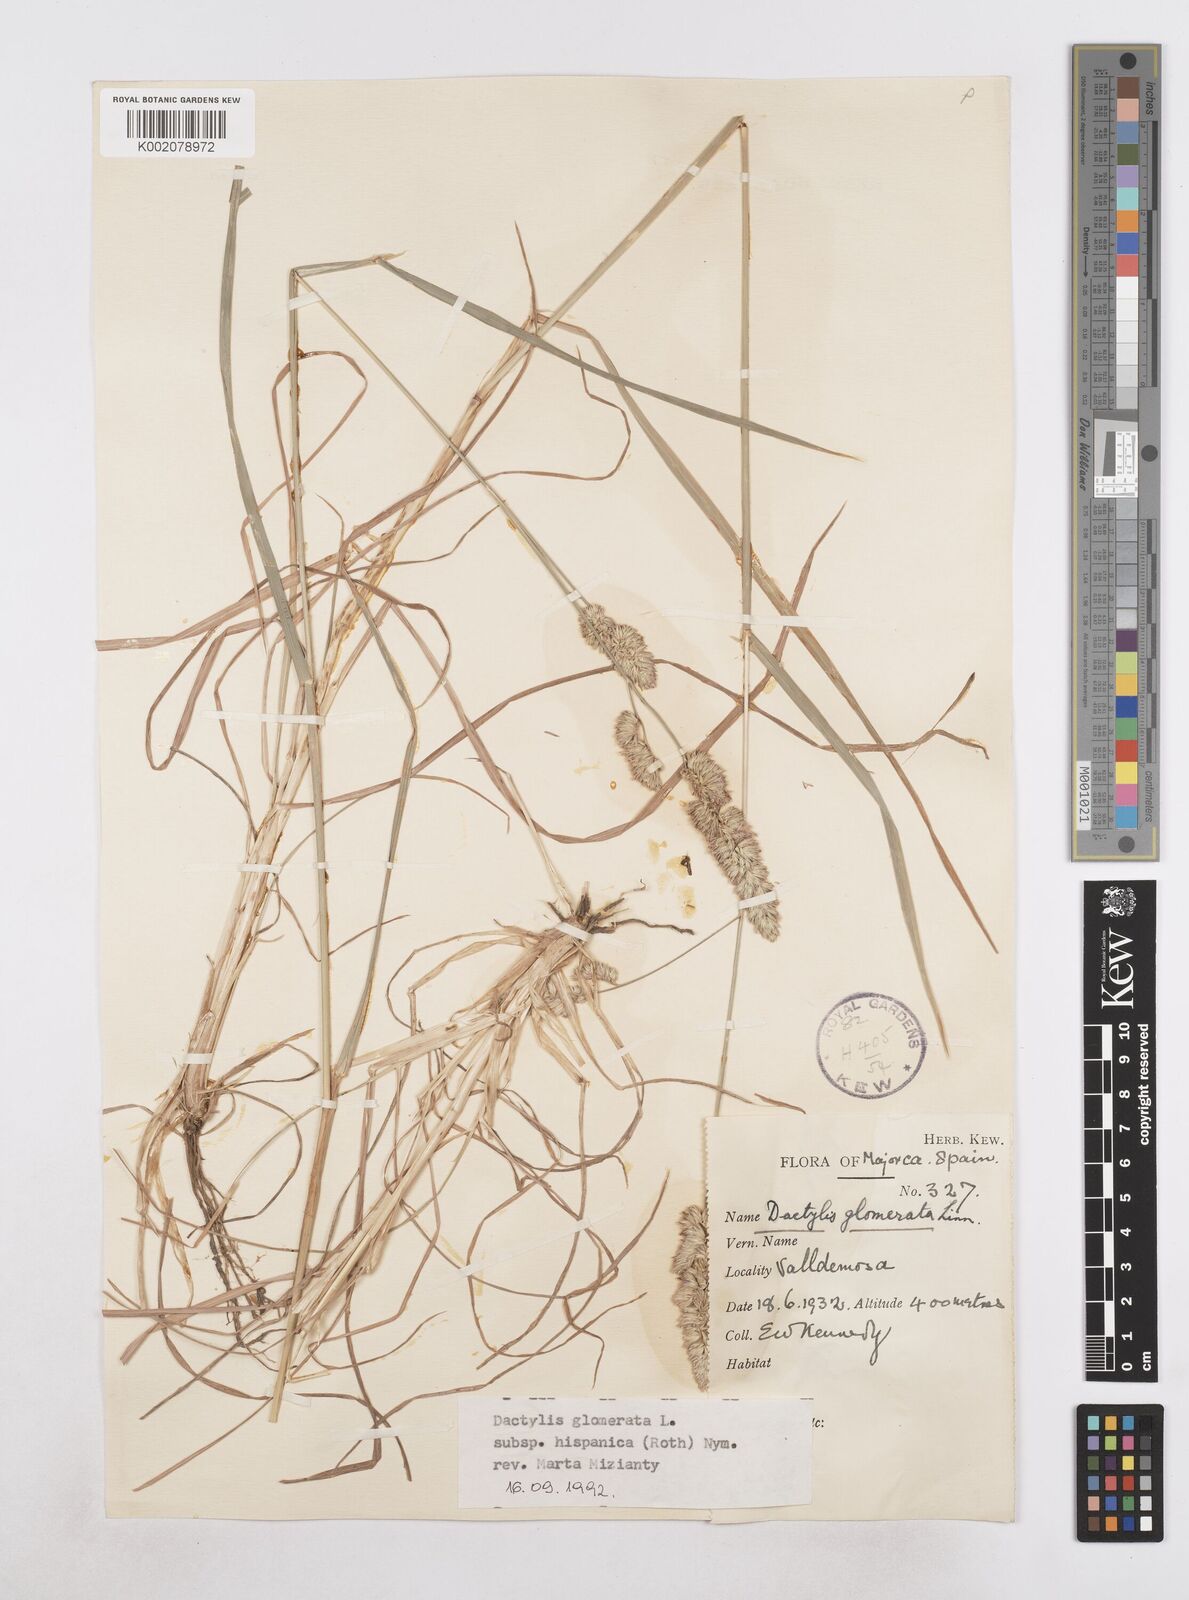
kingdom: Plantae
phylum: Tracheophyta
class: Liliopsida
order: Poales
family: Poaceae
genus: Dactylis
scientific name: Dactylis glomerata
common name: Orchardgrass
